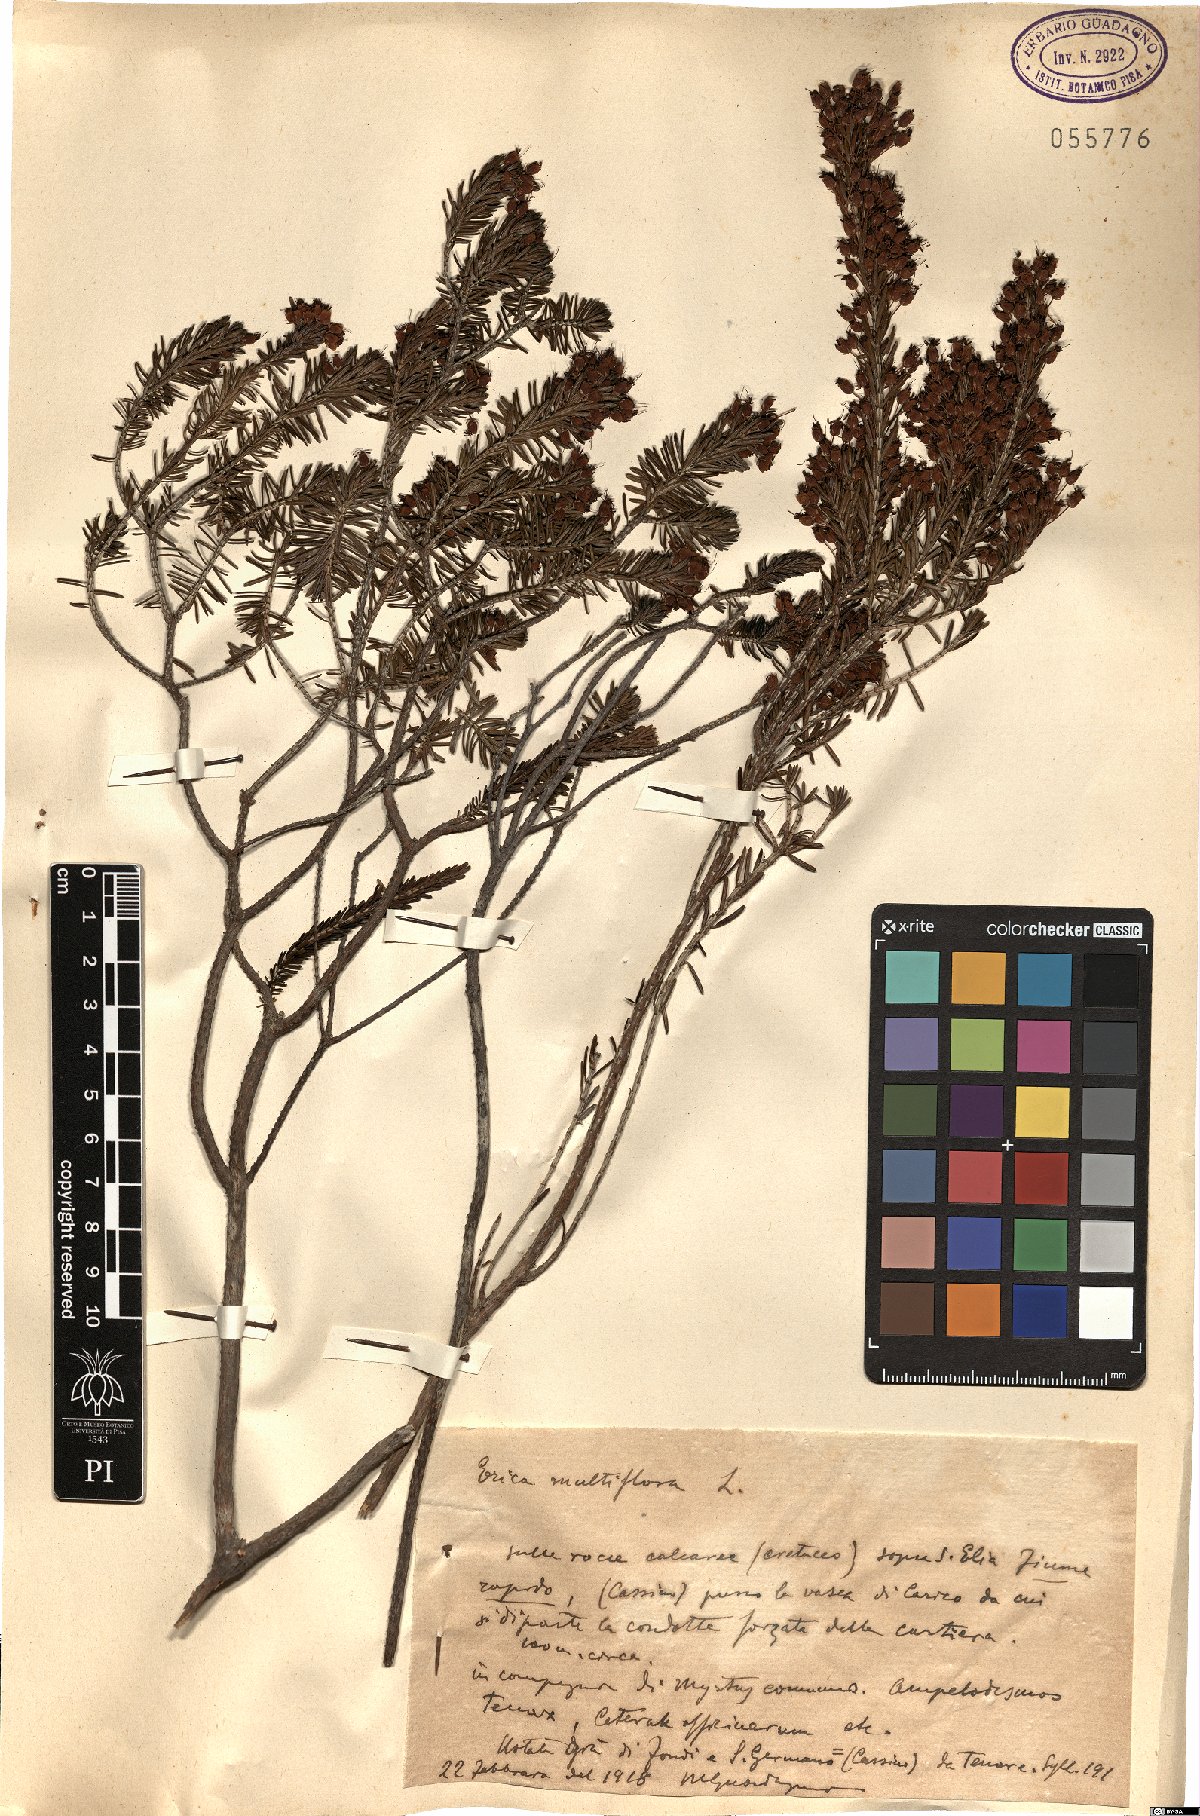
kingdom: Plantae
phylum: Tracheophyta
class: Magnoliopsida
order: Ericales
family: Ericaceae
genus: Erica
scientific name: Erica multiflora
